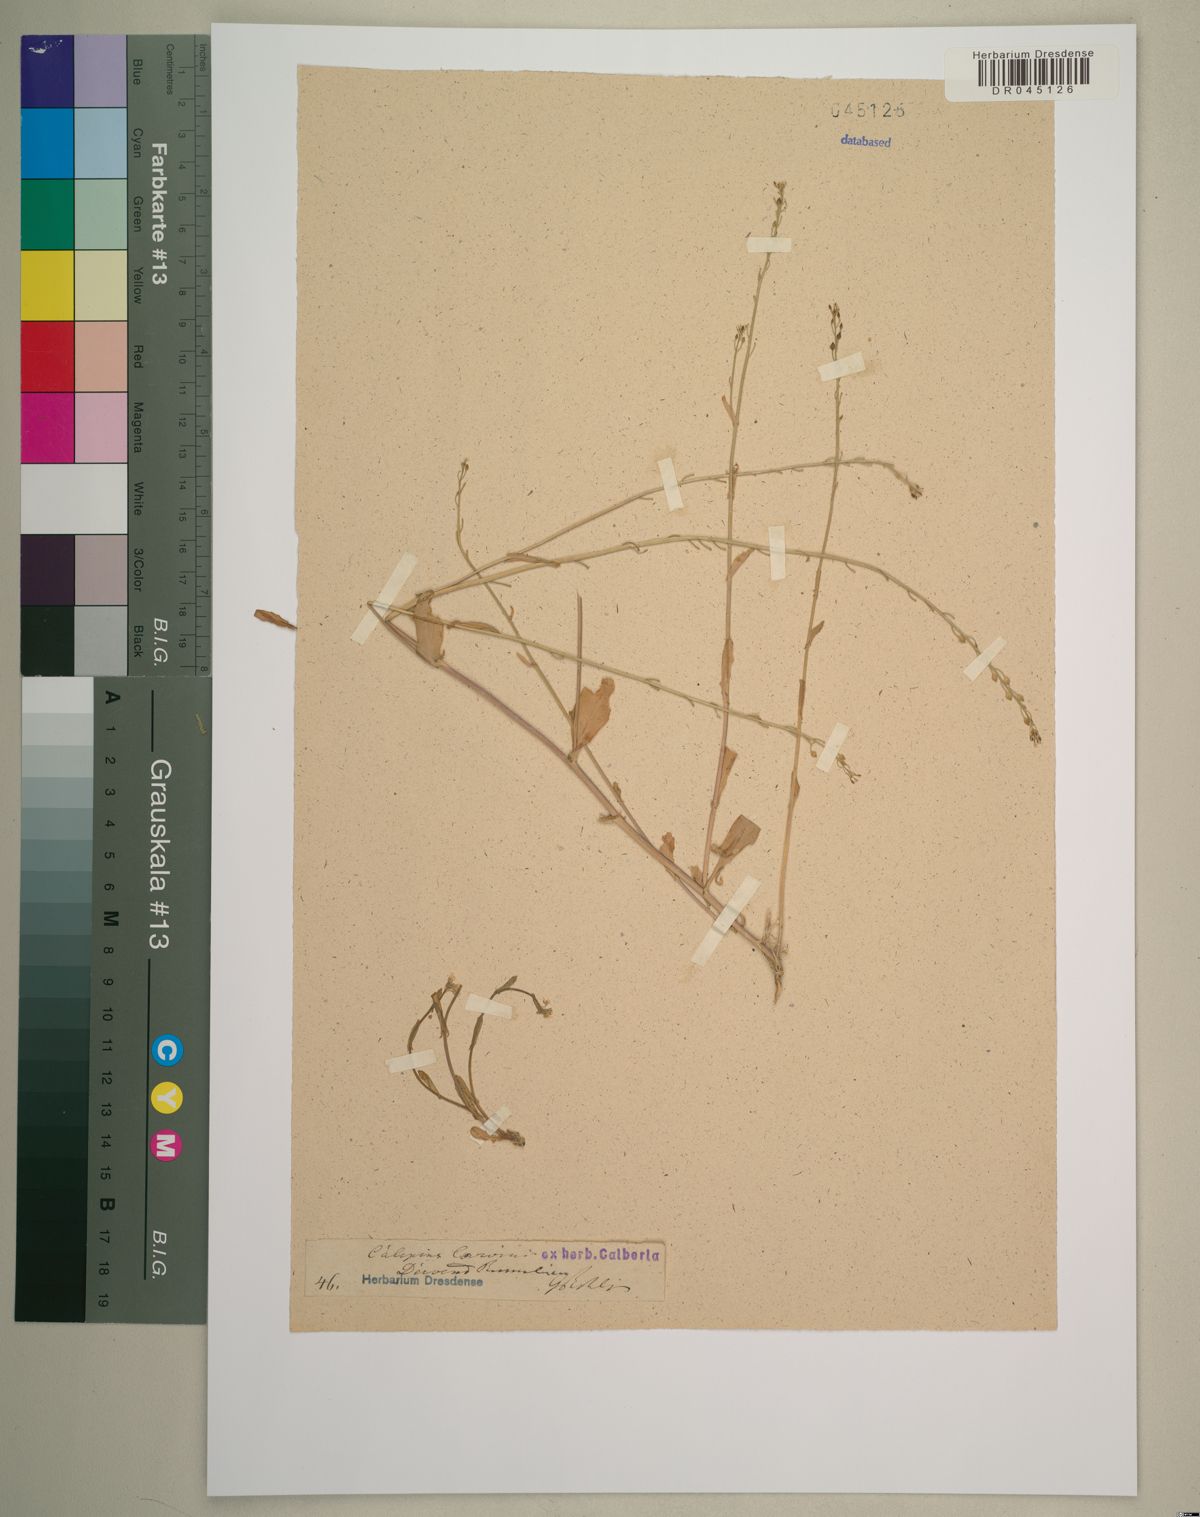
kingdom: Plantae
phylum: Tracheophyta
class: Magnoliopsida
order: Brassicales
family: Brassicaceae
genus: Calepina
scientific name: Calepina irregularis
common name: White ballmustard
